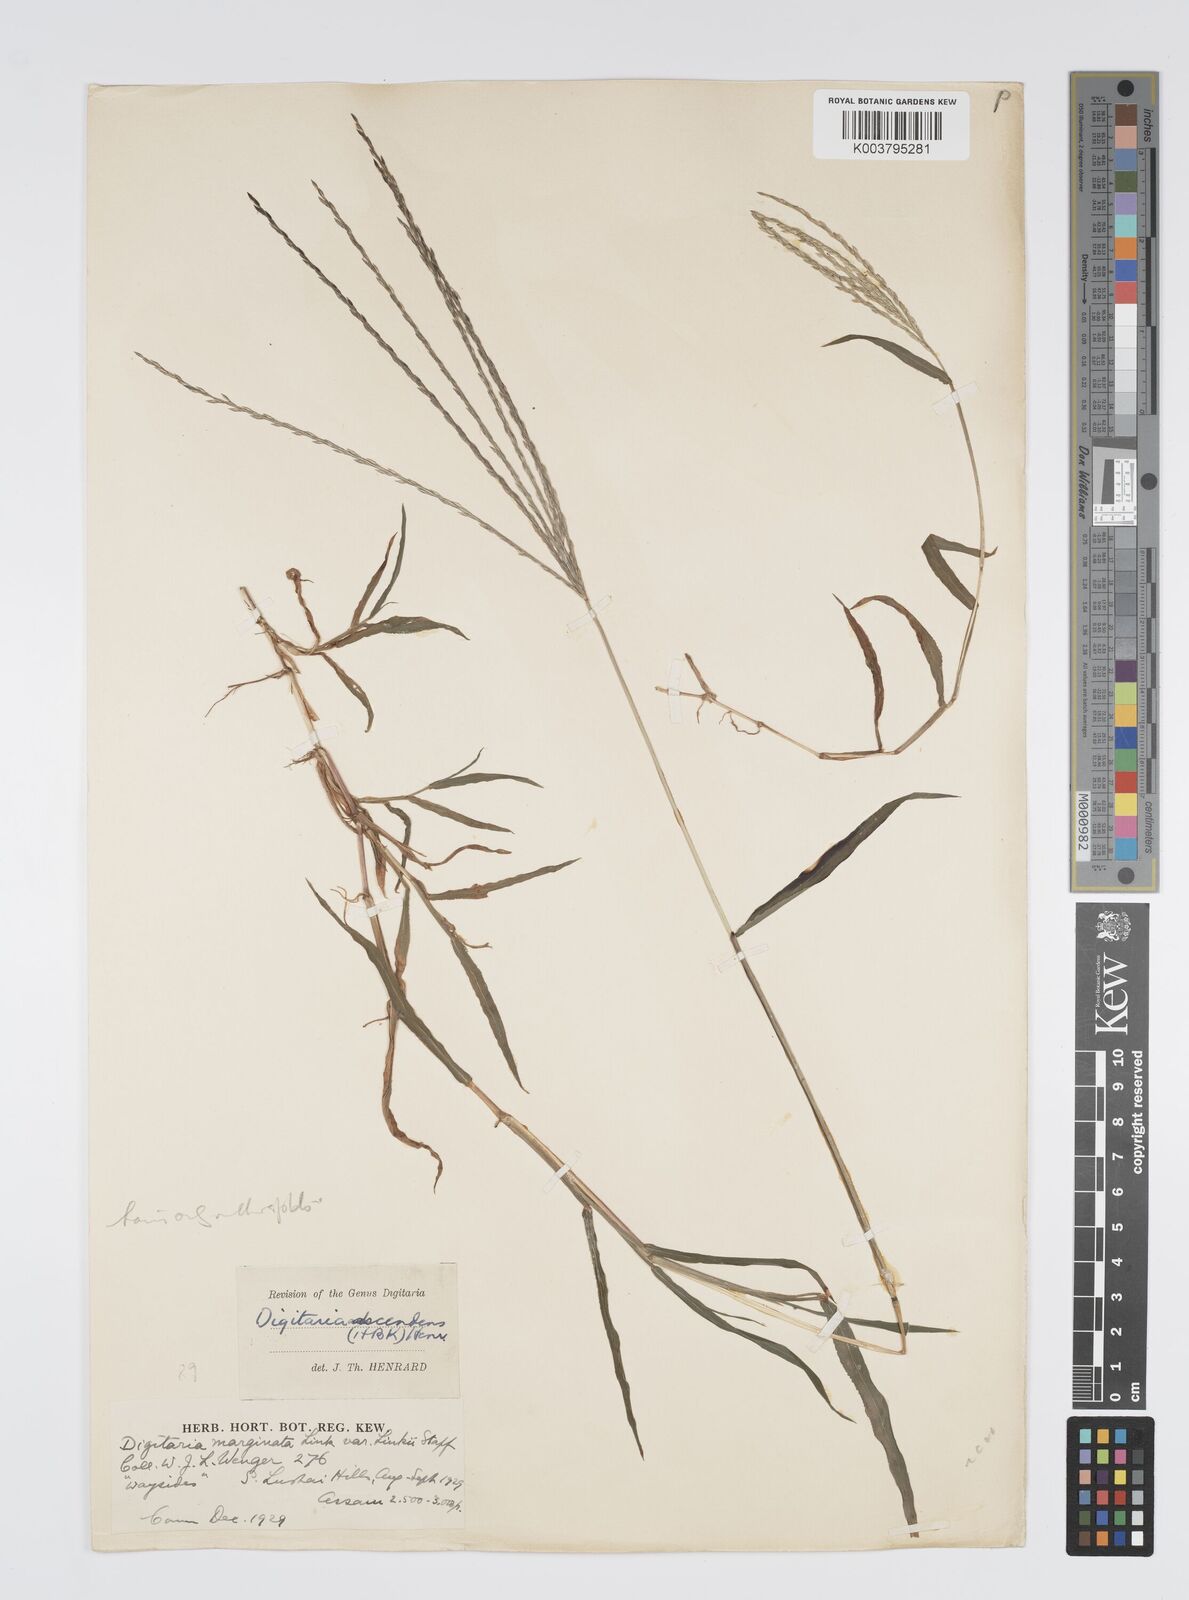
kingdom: Plantae
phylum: Tracheophyta
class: Liliopsida
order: Poales
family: Poaceae
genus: Digitaria
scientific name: Digitaria ciliaris
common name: Tropical finger-grass
